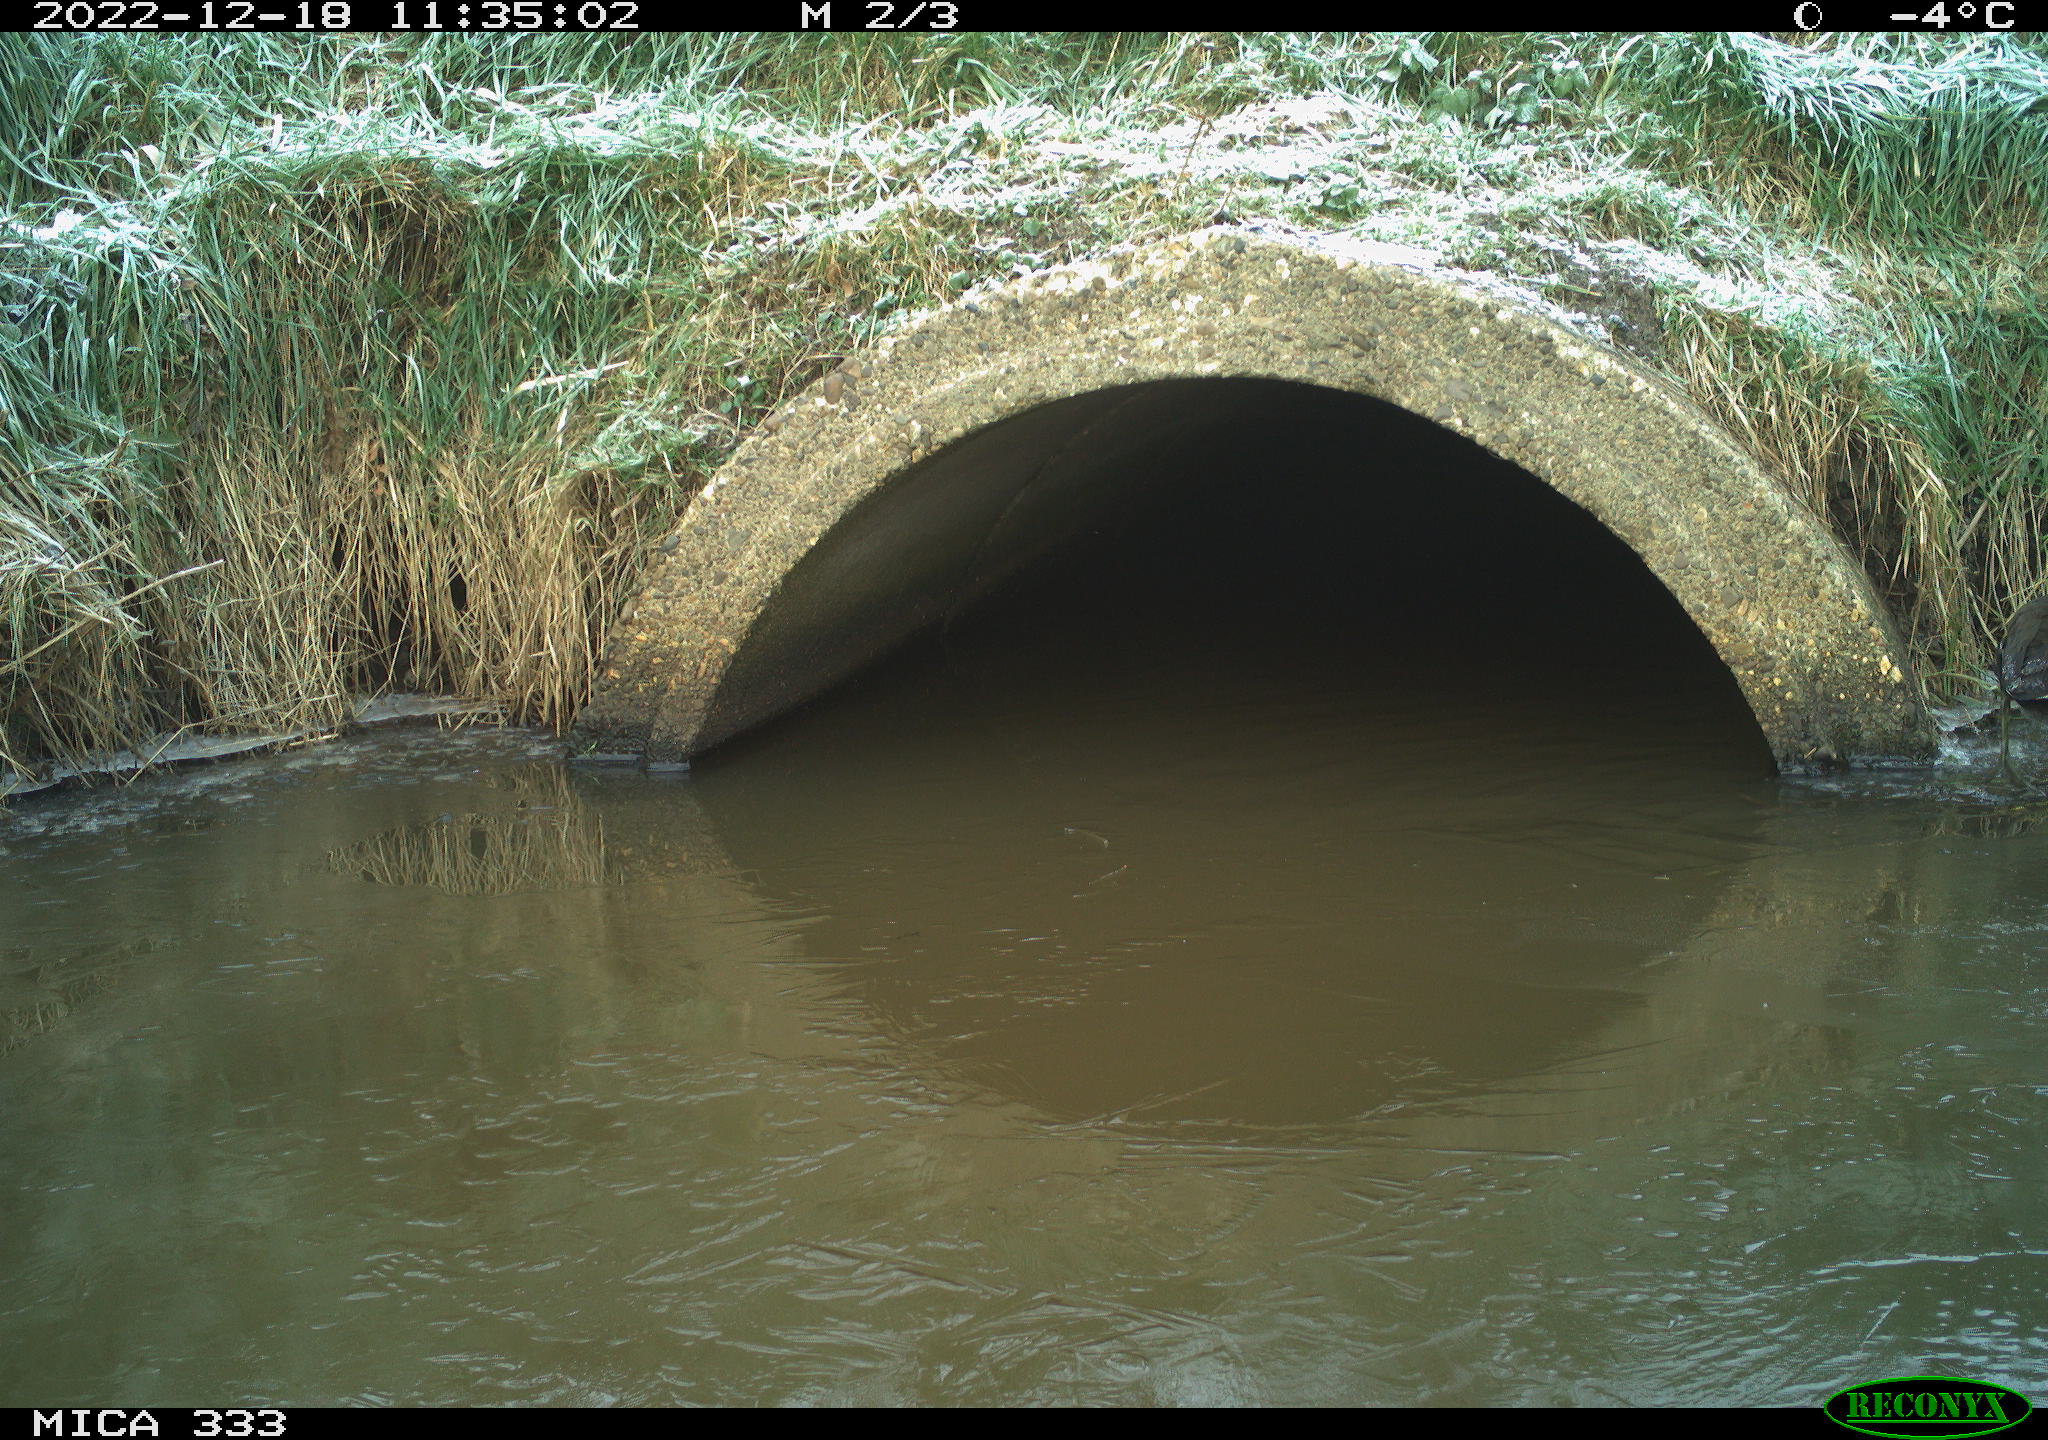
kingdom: Animalia
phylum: Chordata
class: Aves
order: Gruiformes
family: Rallidae
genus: Gallinula
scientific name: Gallinula chloropus
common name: Common moorhen
